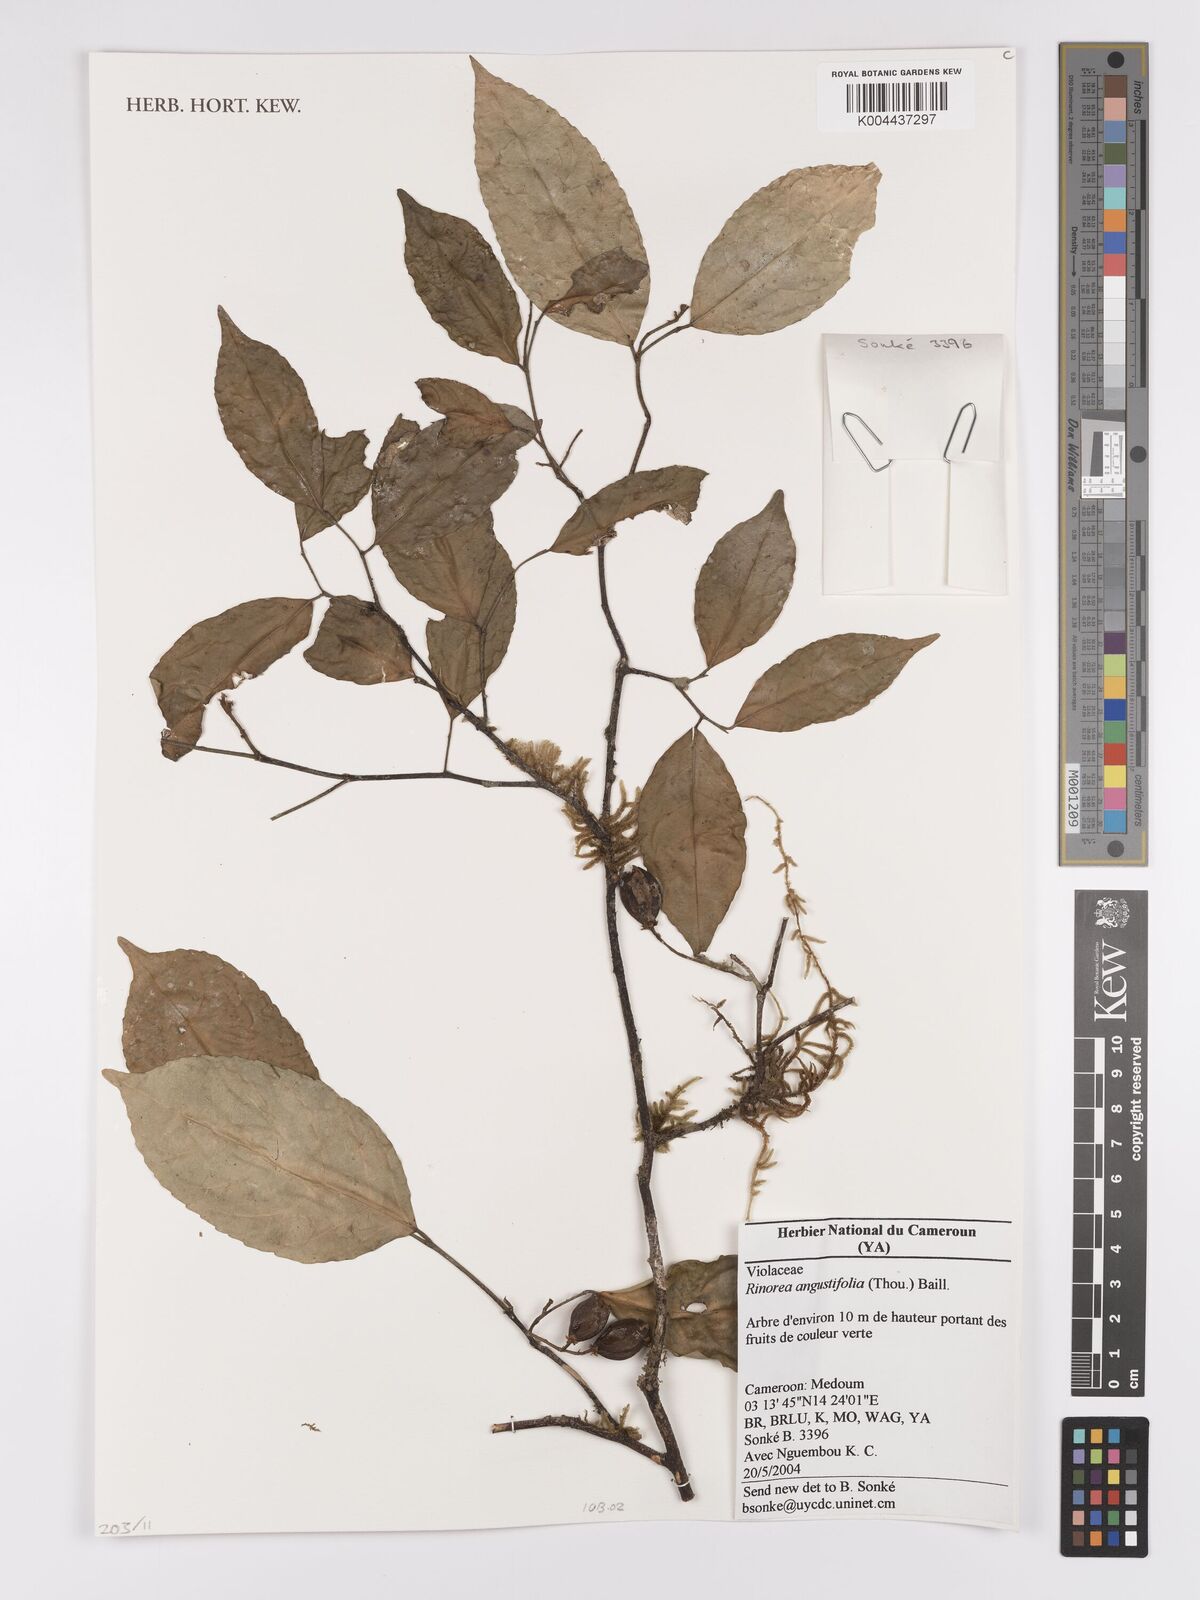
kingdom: Plantae
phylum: Tracheophyta
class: Magnoliopsida
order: Malpighiales
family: Violaceae
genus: Rinorea
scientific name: Rinorea angustifolia
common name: White violet-bush
